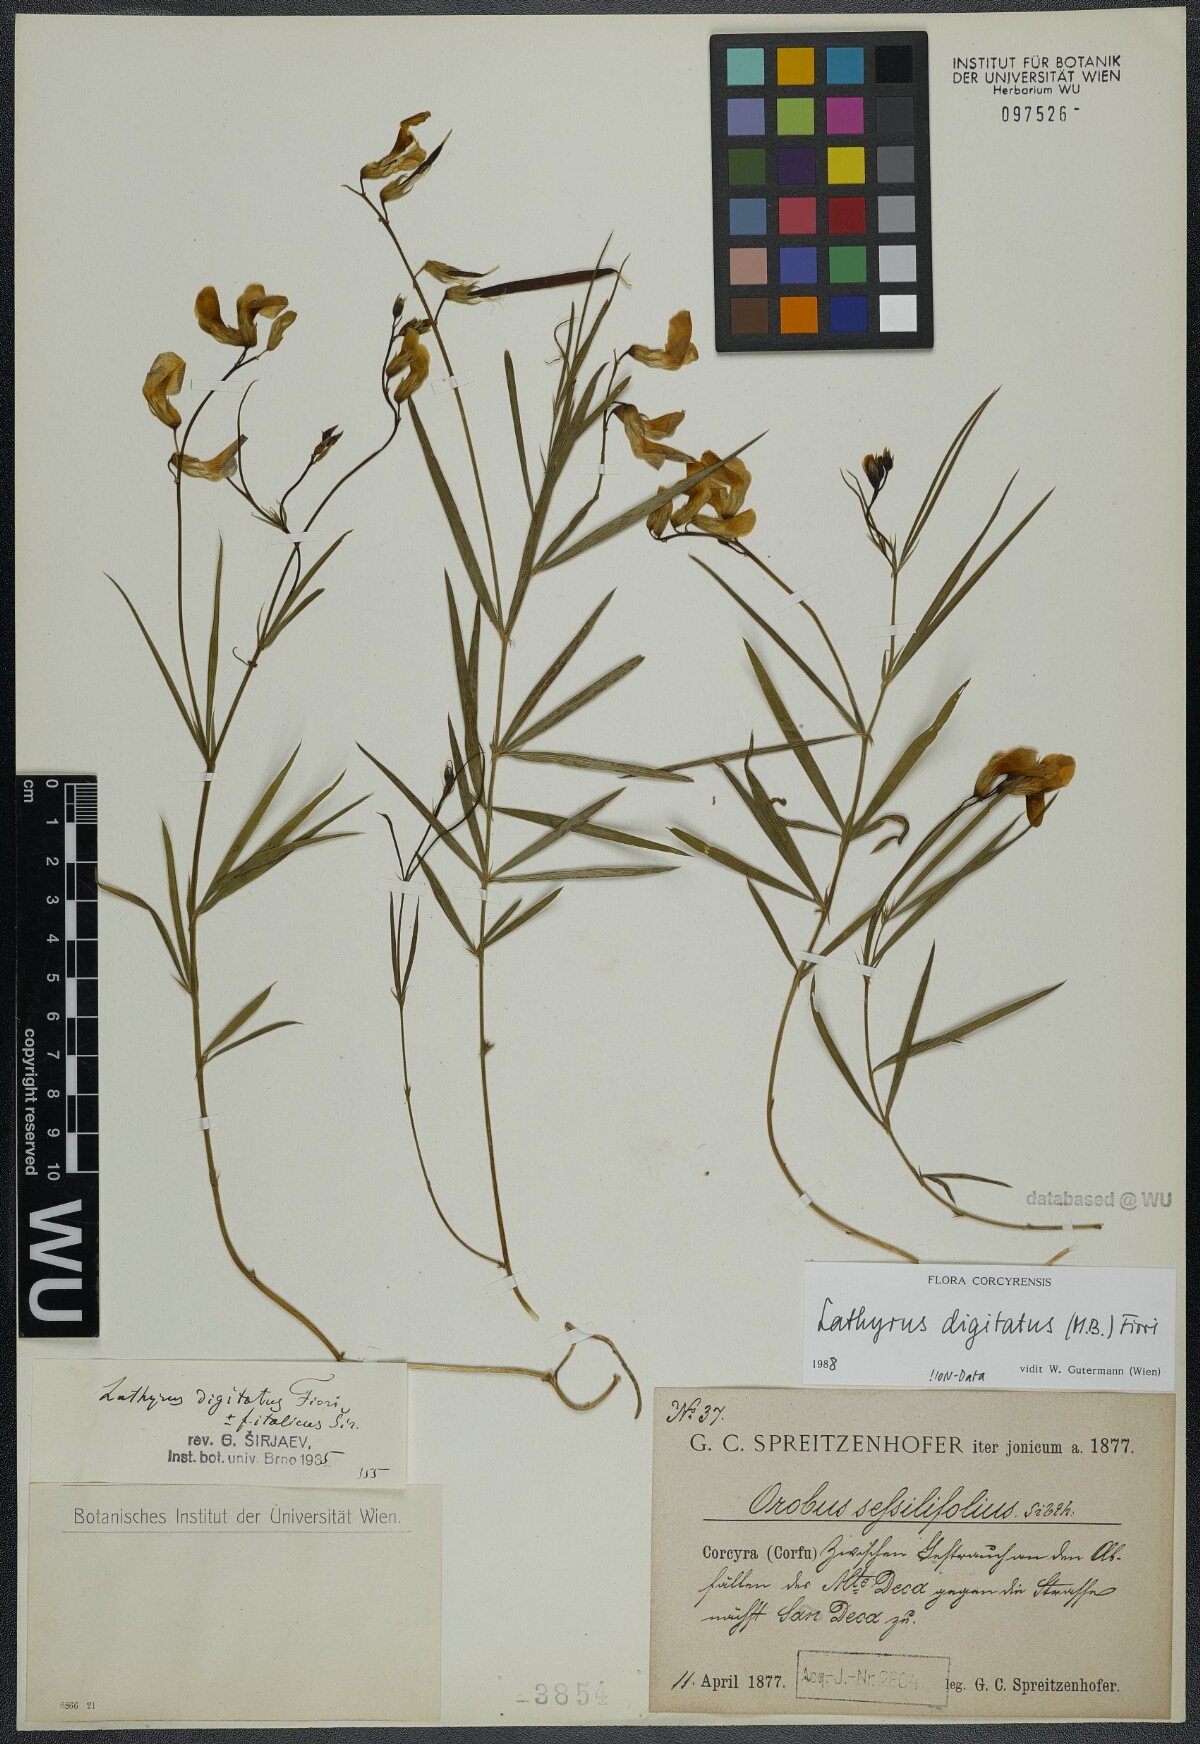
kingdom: Plantae
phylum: Tracheophyta
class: Magnoliopsida
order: Fabales
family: Fabaceae
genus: Lathyrus
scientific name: Lathyrus digitatus
